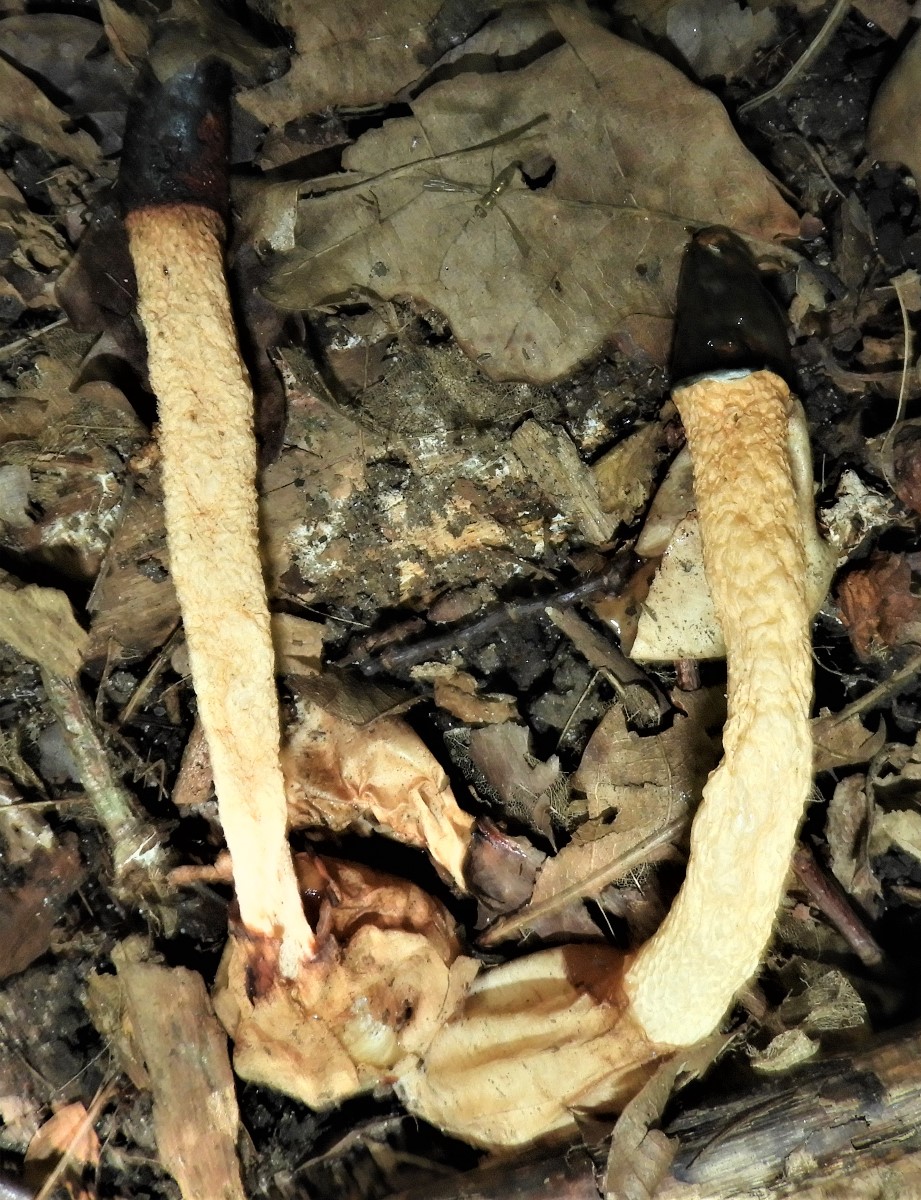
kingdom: Fungi
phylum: Basidiomycota
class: Agaricomycetes
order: Phallales
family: Phallaceae
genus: Mutinus
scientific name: Mutinus caninus
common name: hunde-stinksvamp
